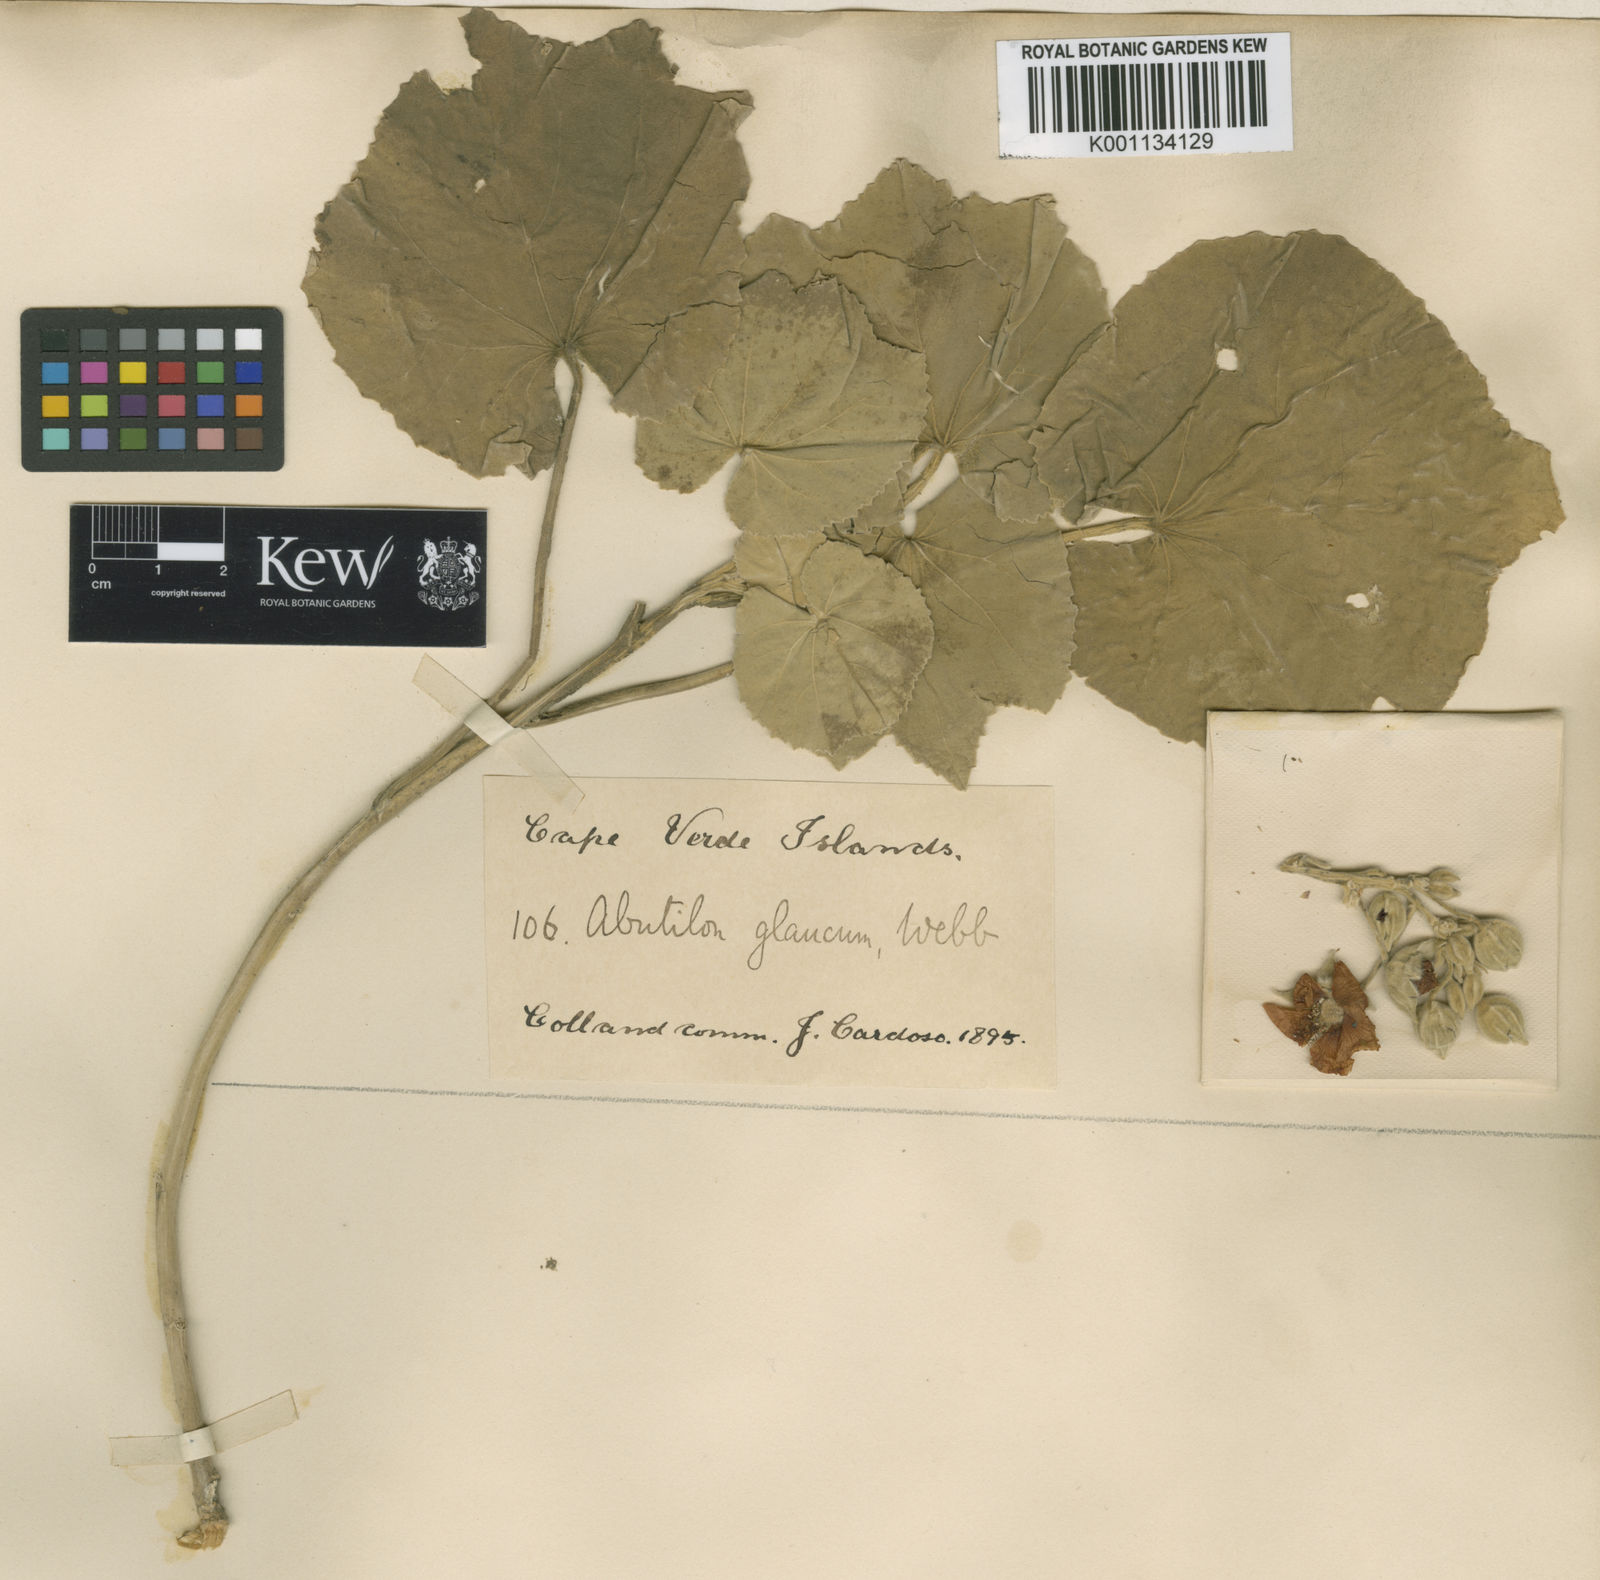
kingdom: Plantae
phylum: Tracheophyta
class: Magnoliopsida
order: Malvales
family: Malvaceae
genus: Abutilon
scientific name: Abutilon pannosum
